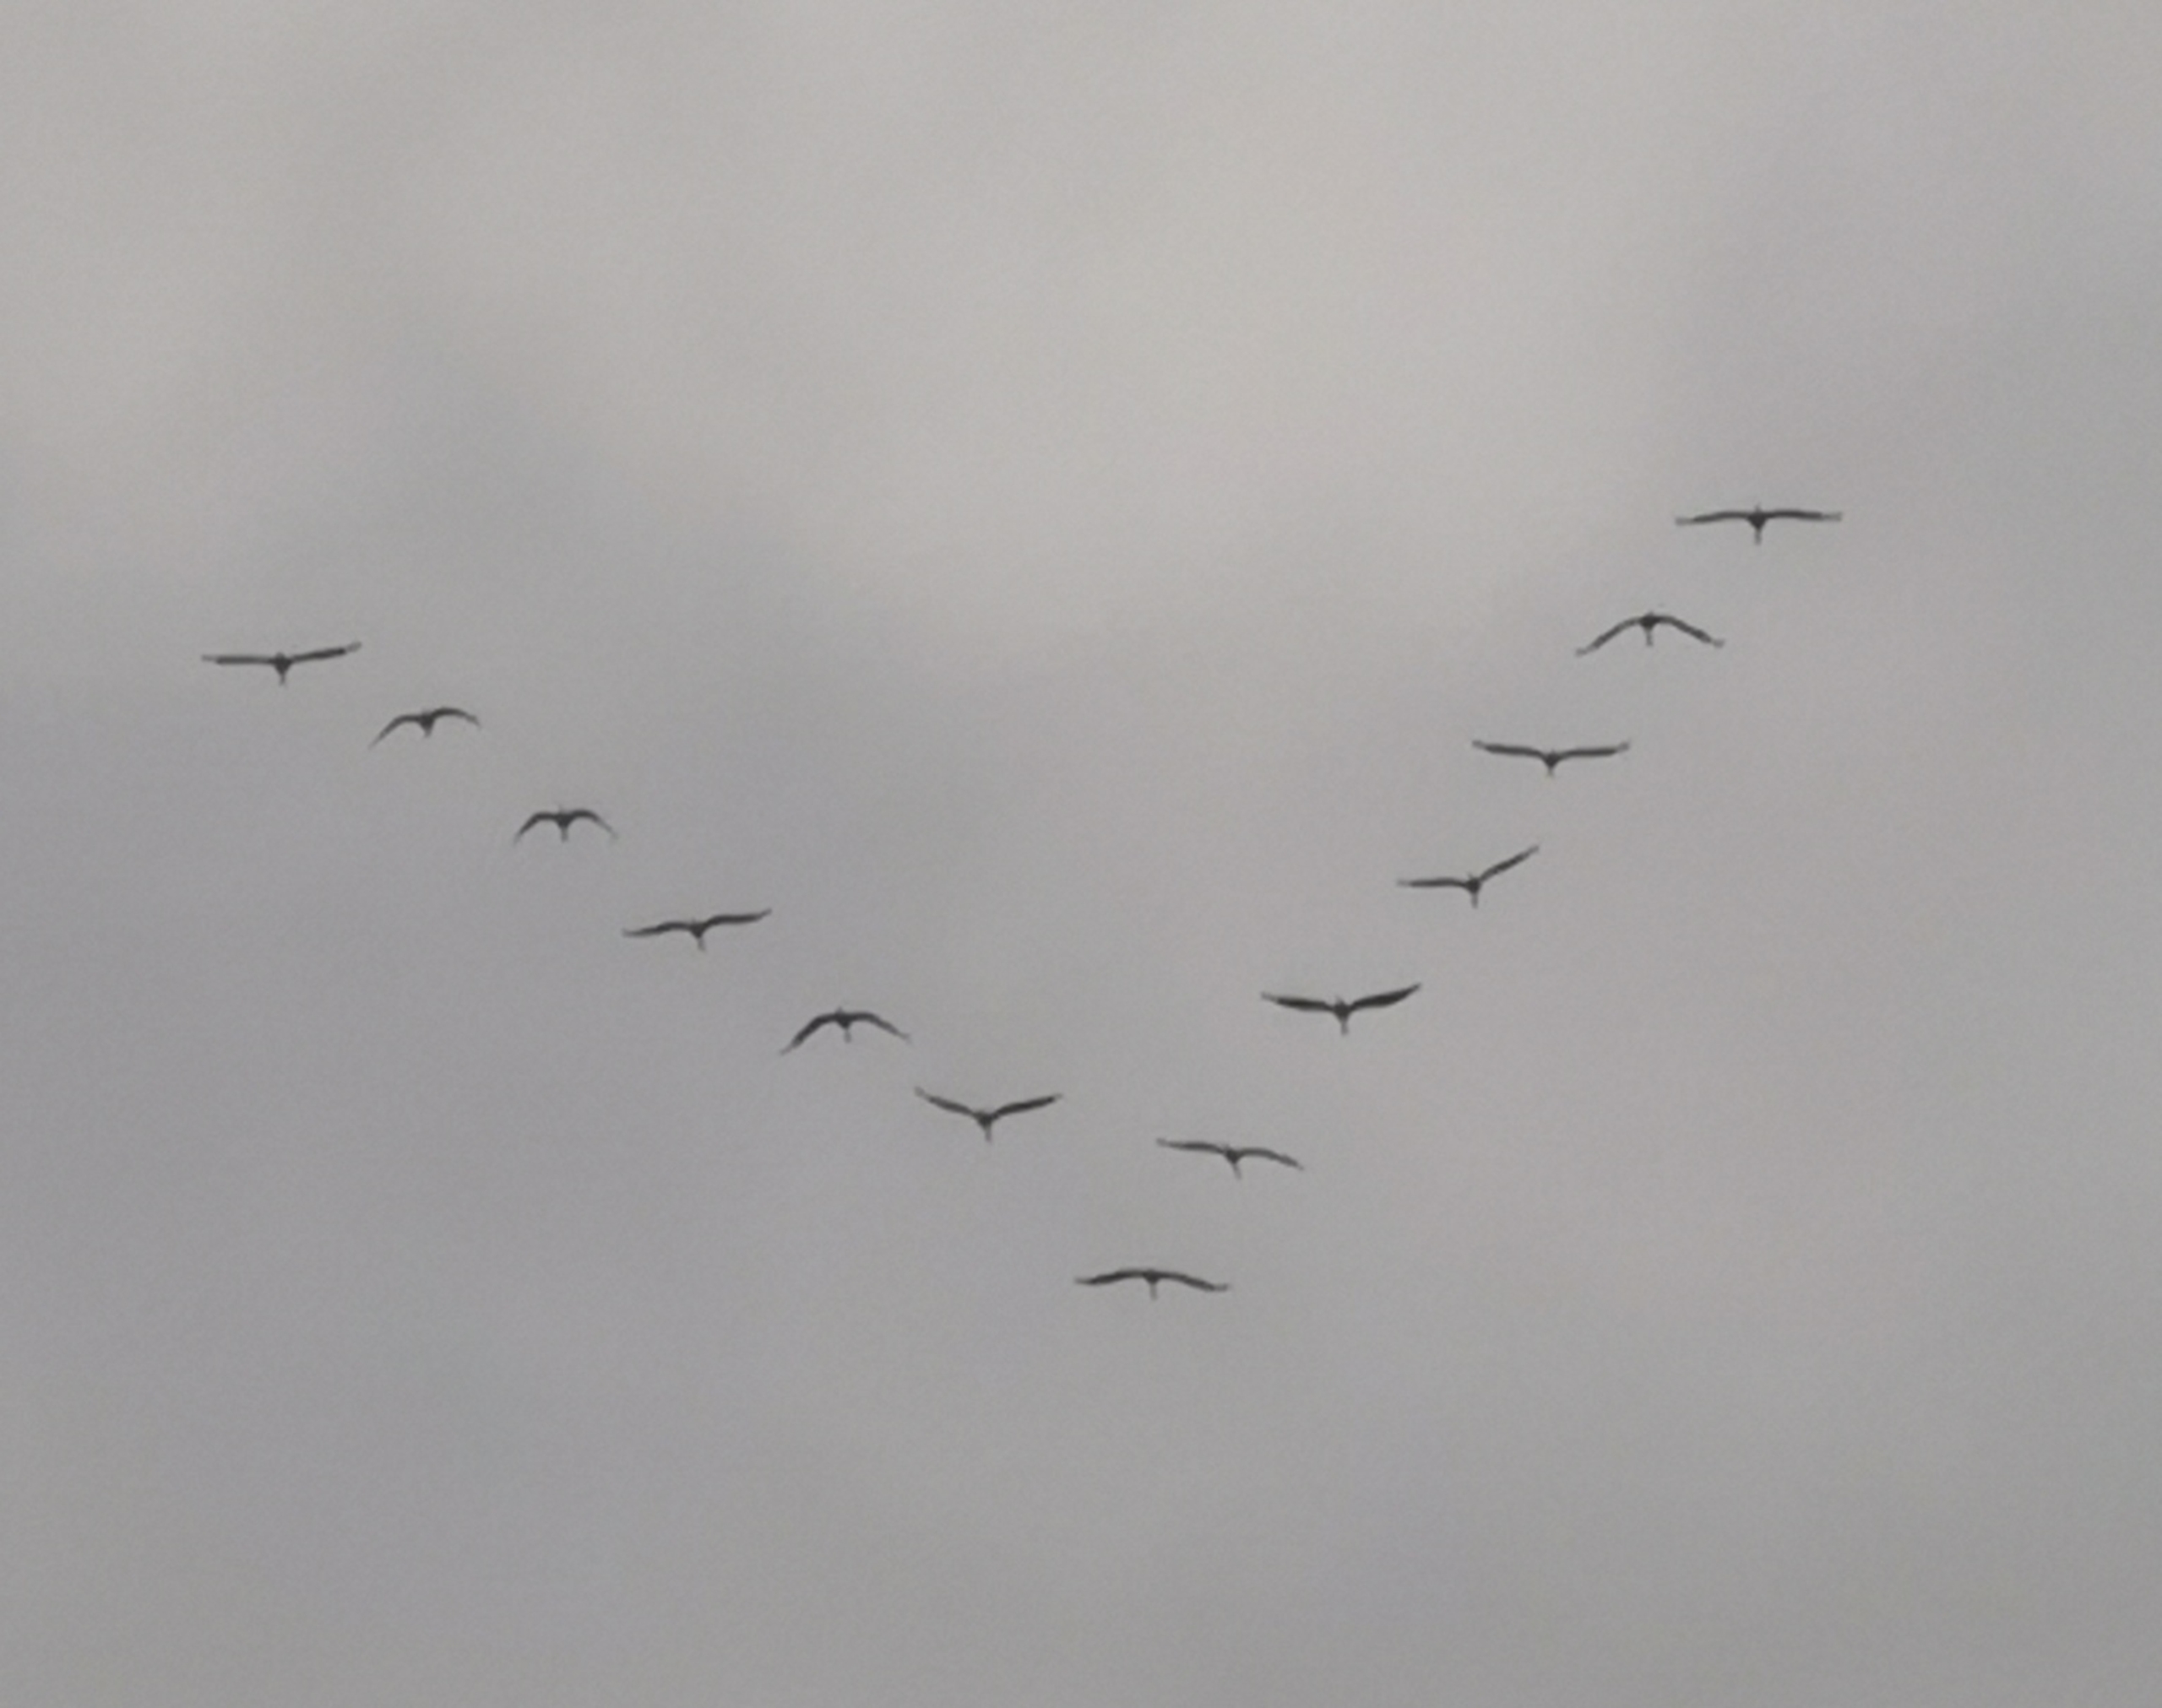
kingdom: Animalia
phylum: Chordata
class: Aves
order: Gruiformes
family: Gruidae
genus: Grus
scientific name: Grus grus
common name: Trane
